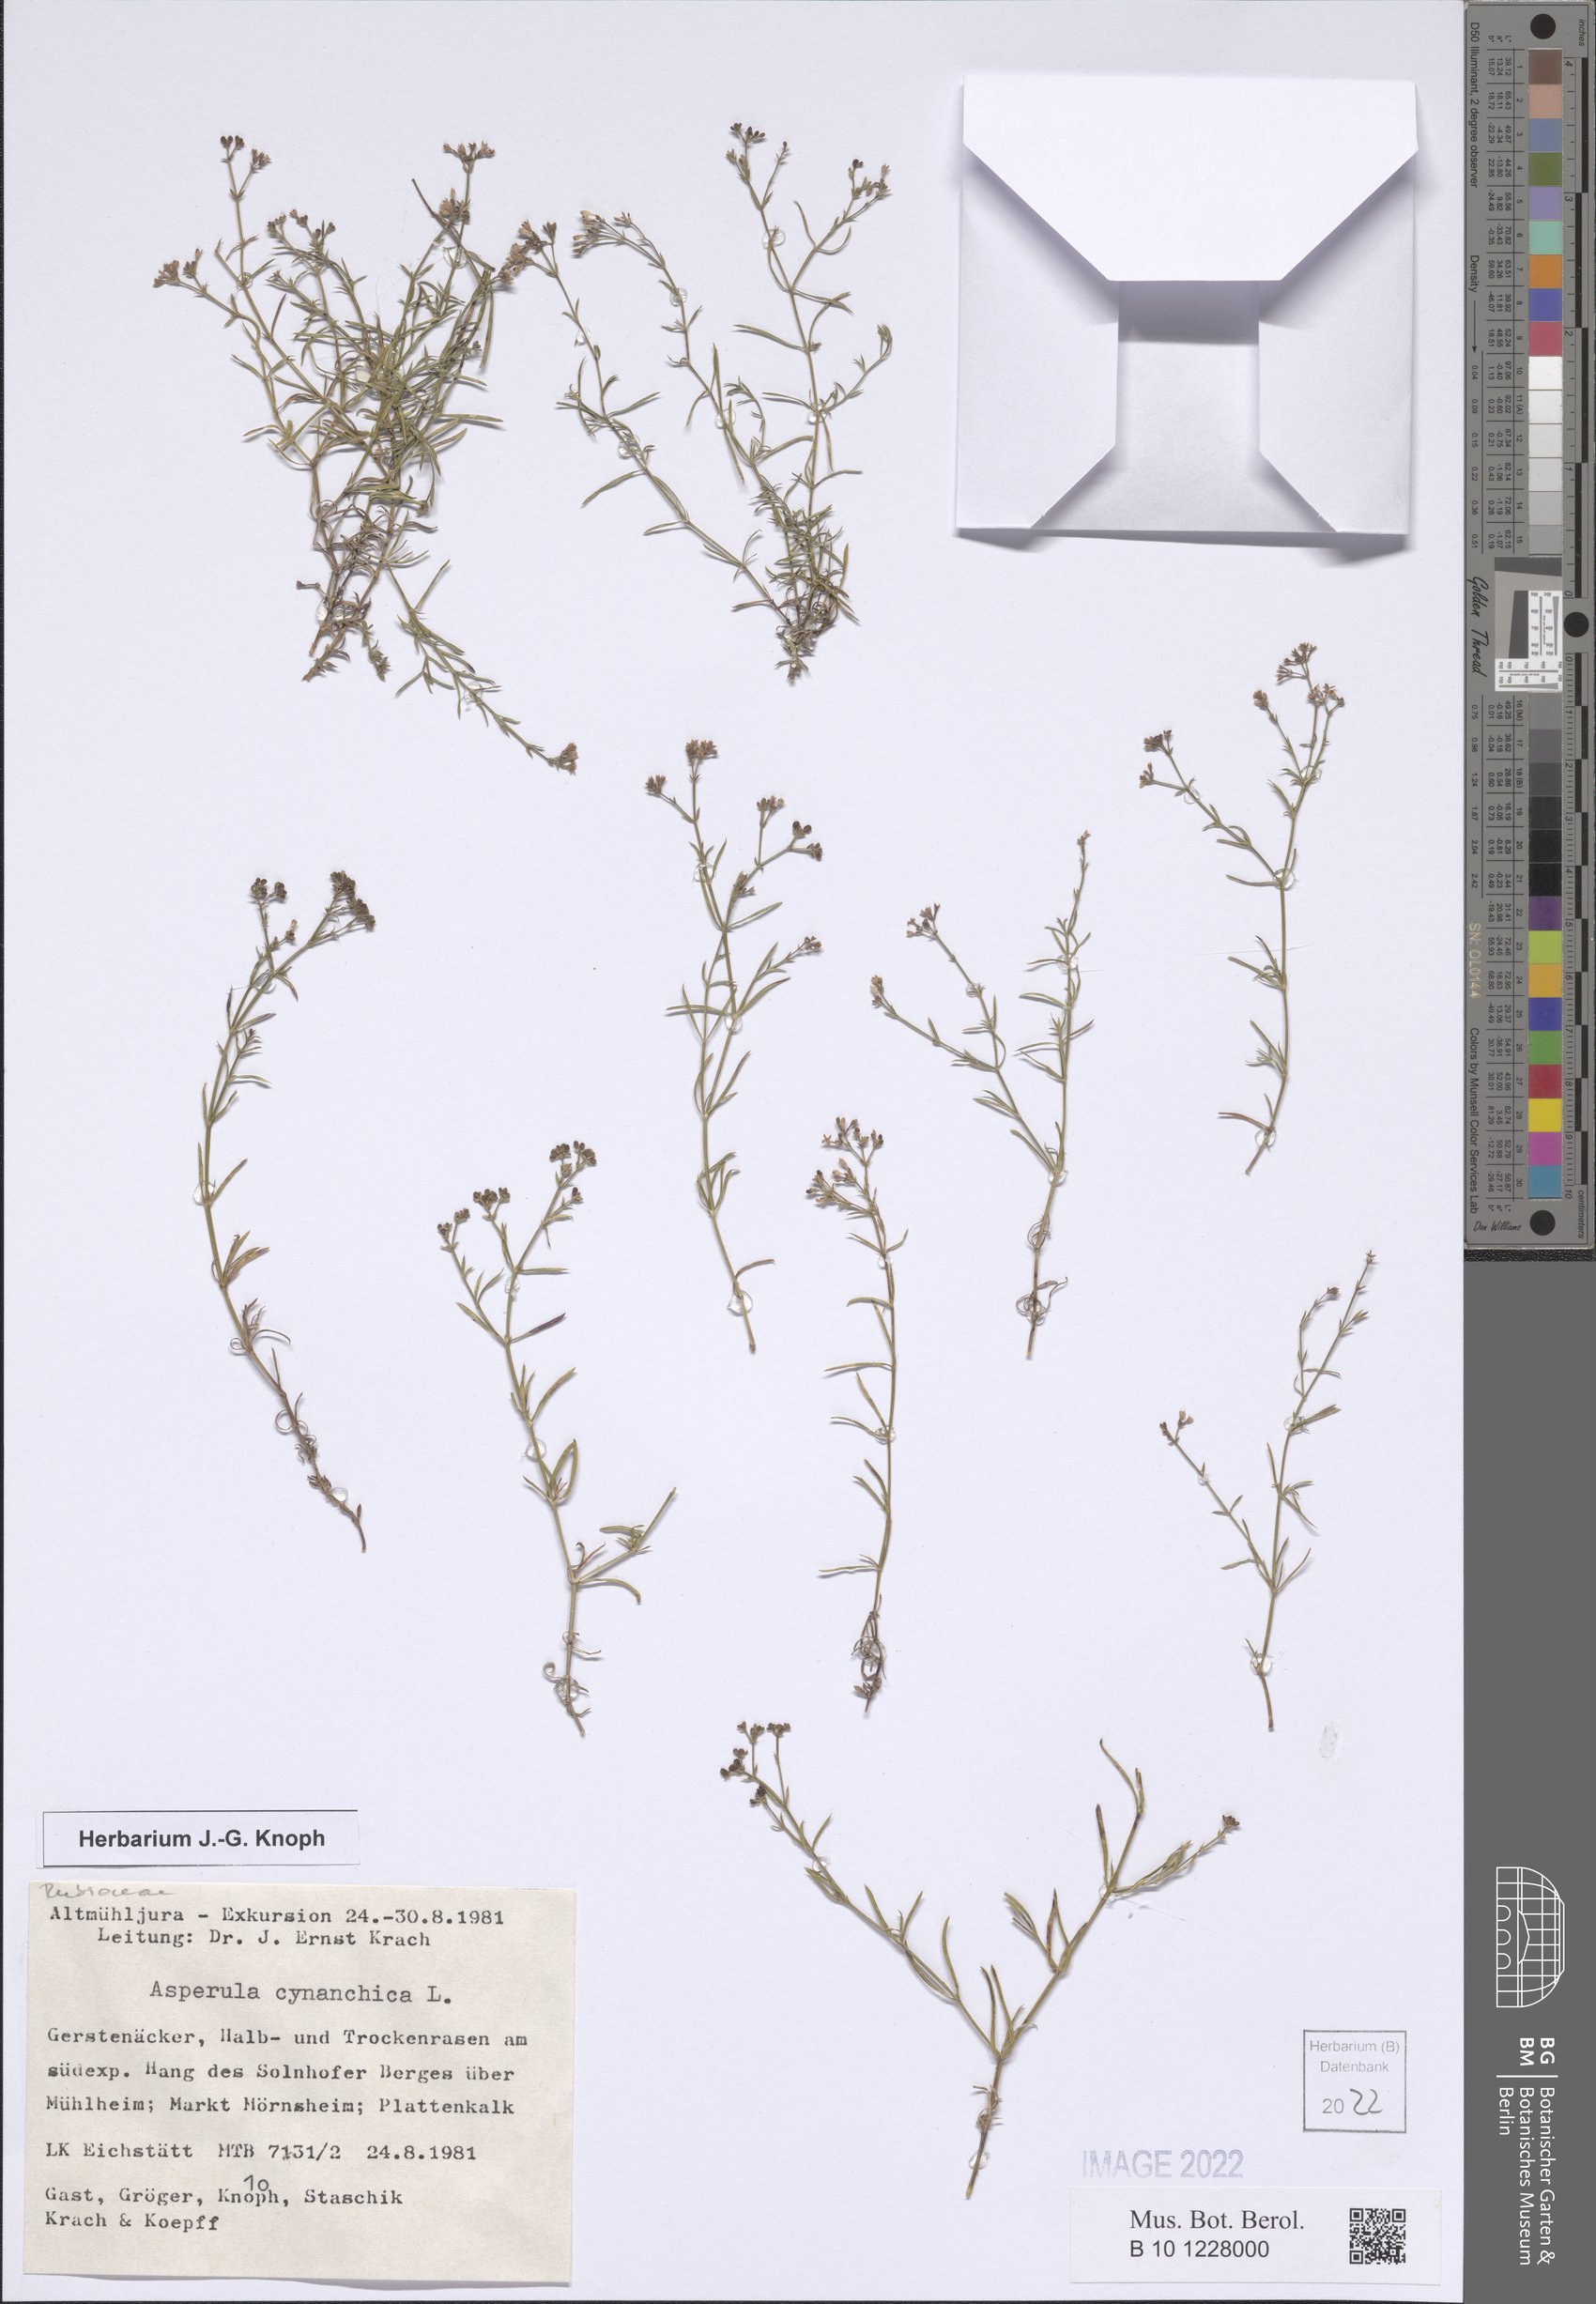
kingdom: Plantae
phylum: Tracheophyta
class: Magnoliopsida
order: Gentianales
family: Rubiaceae
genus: Cynanchica
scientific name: Cynanchica pyrenaica
